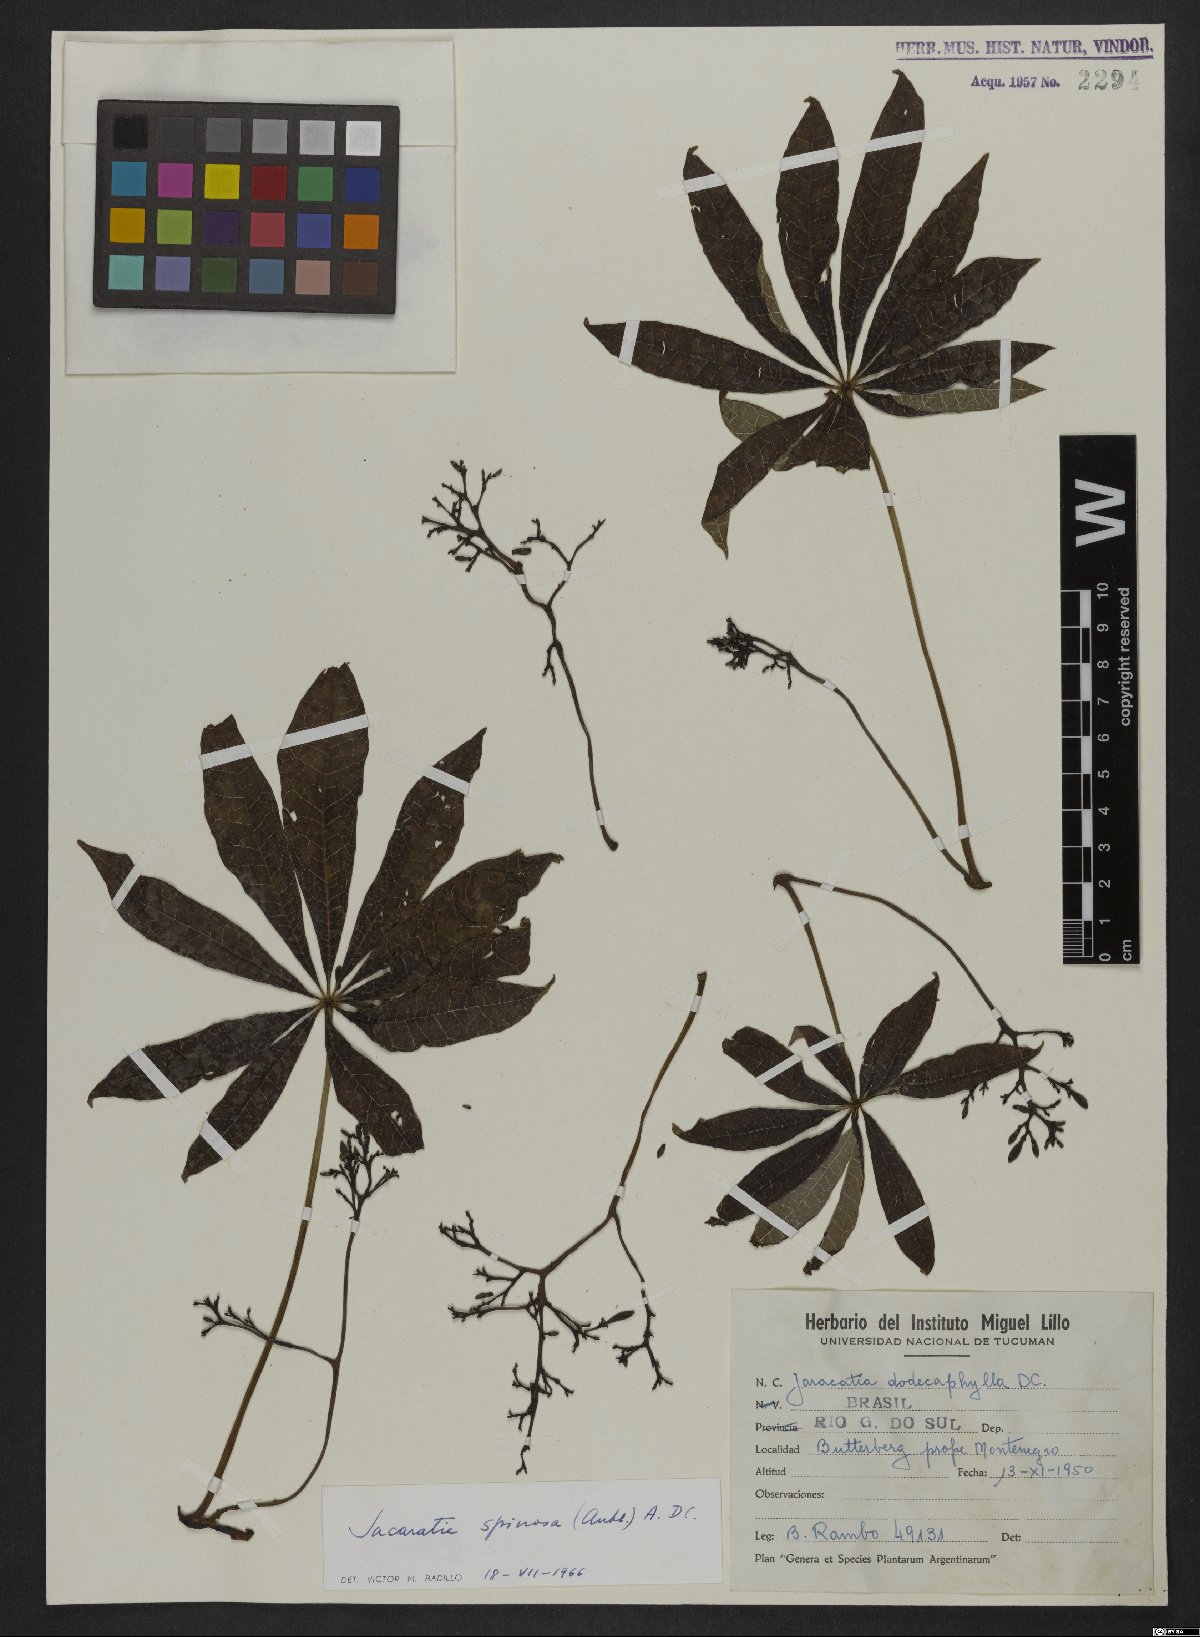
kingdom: Plantae
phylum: Tracheophyta
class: Magnoliopsida
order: Brassicales
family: Caricaceae
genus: Jacaratia
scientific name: Jacaratia spinosa
